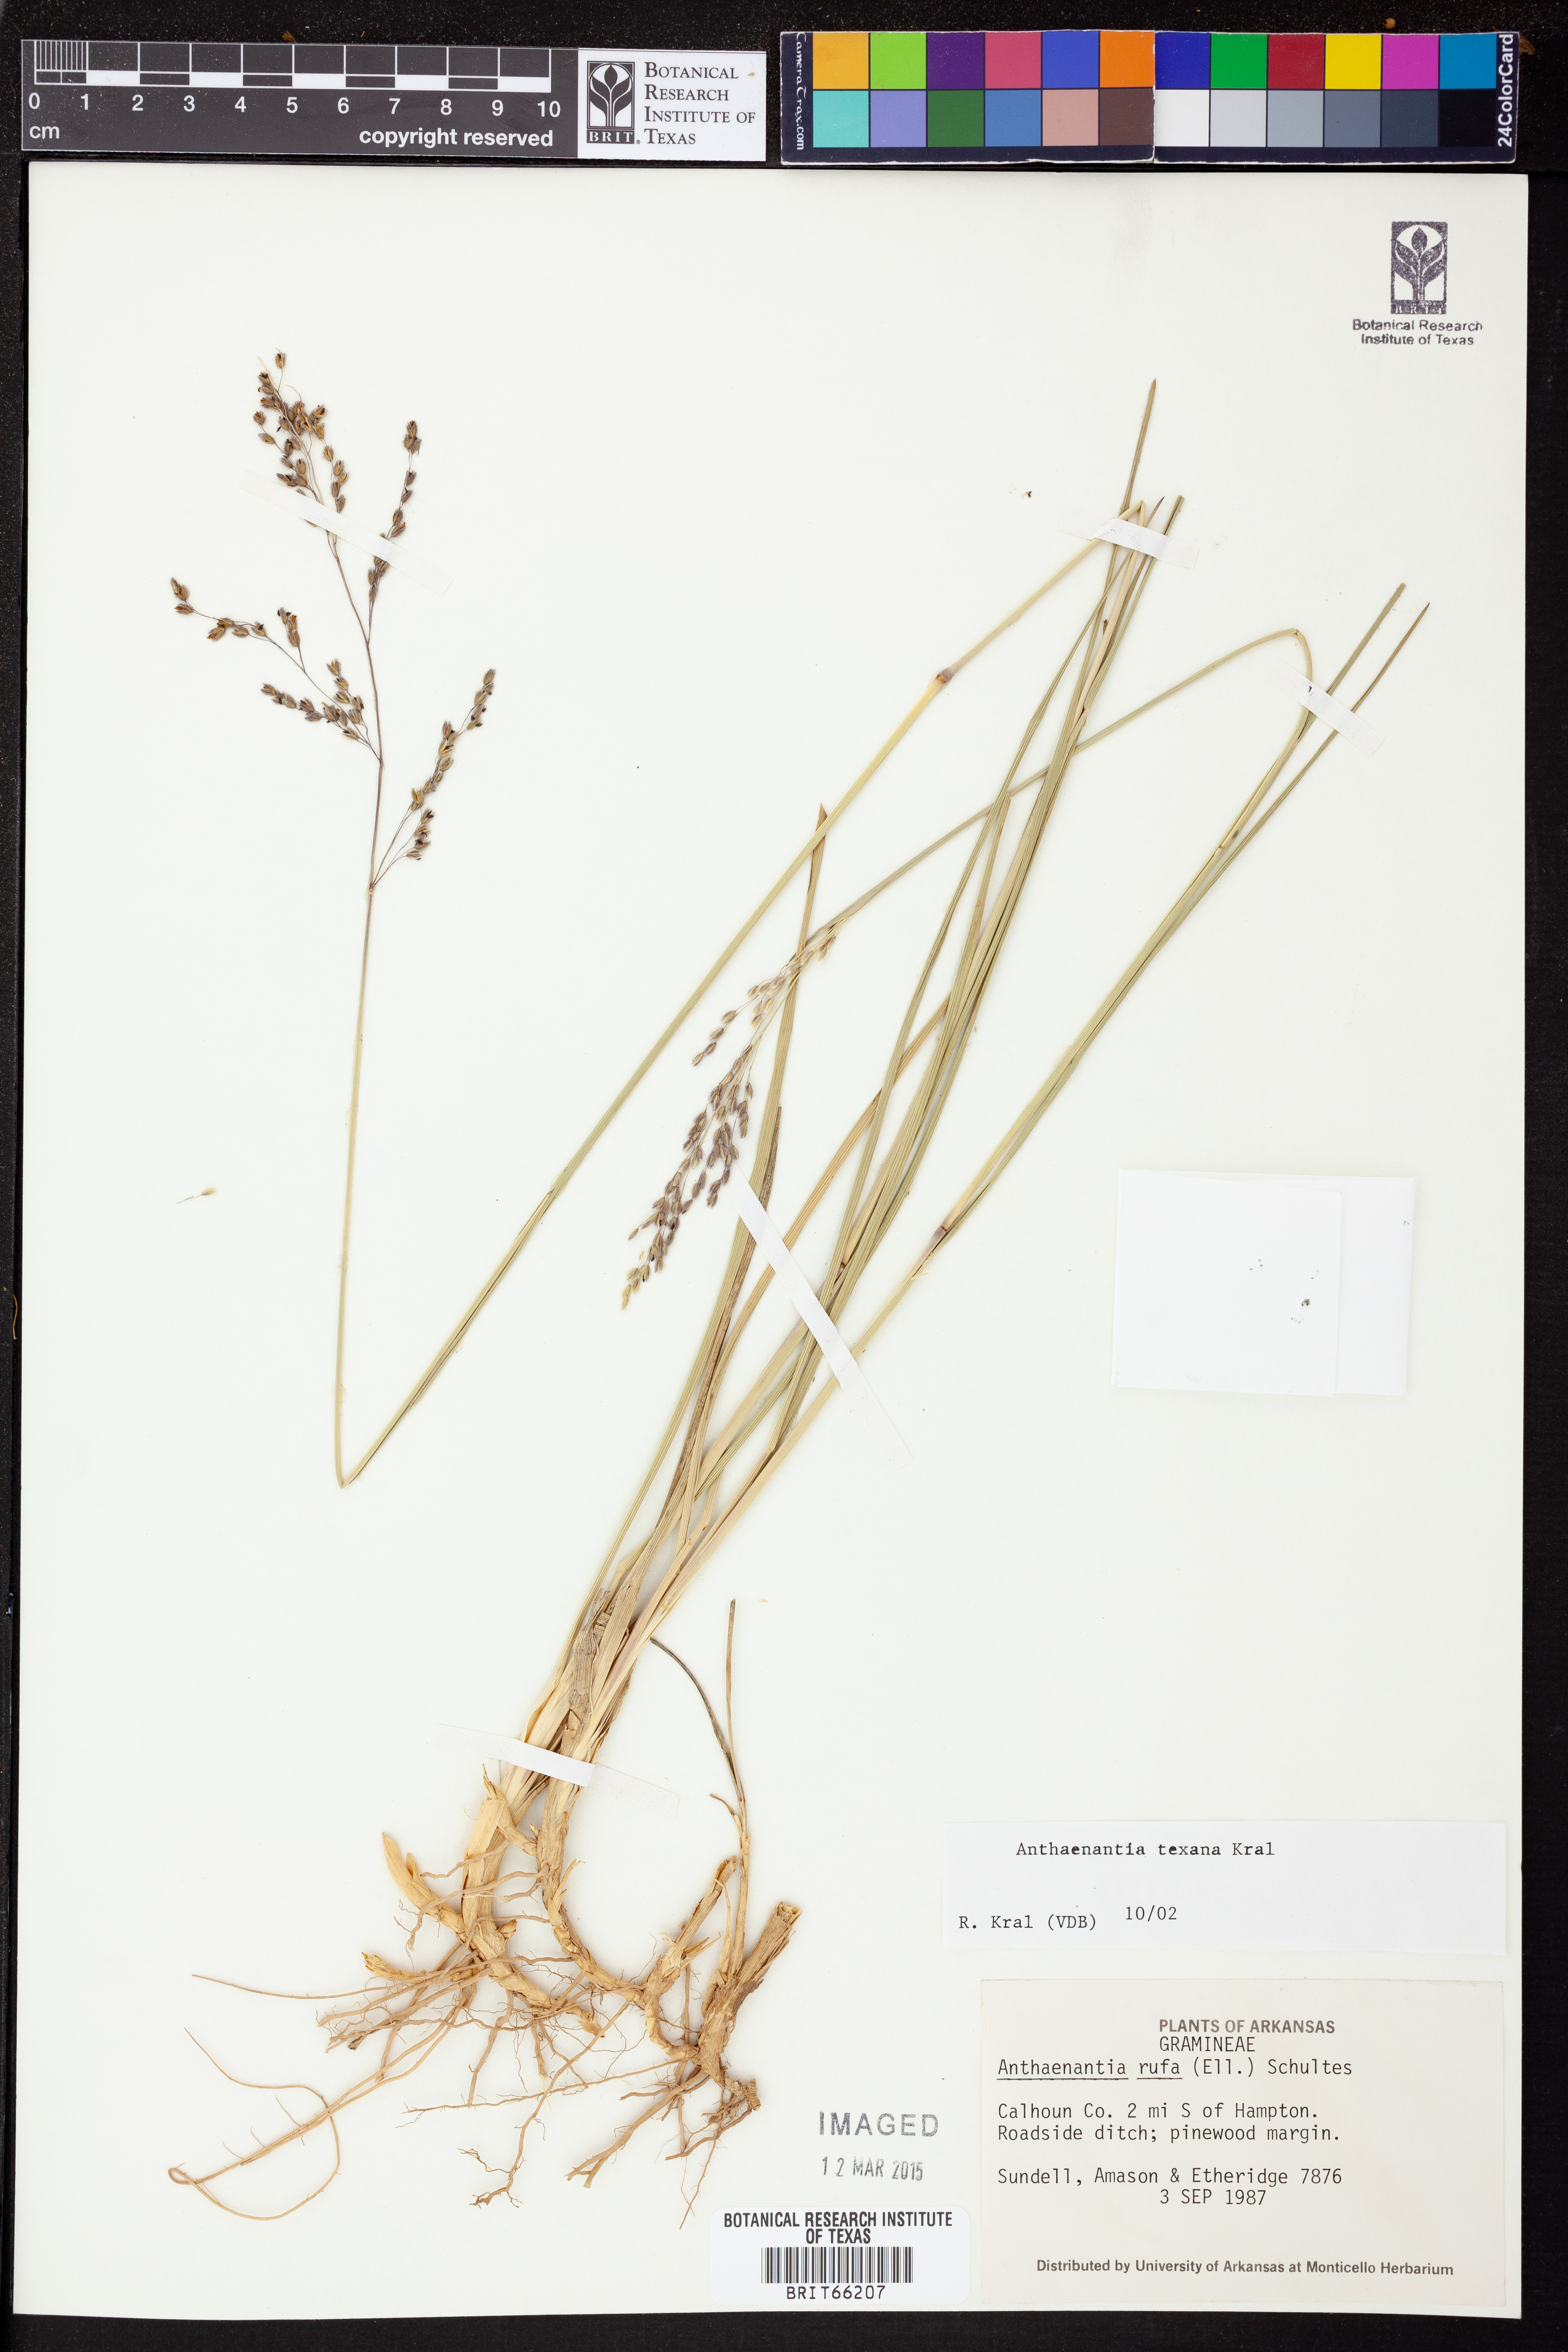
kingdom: Plantae
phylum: Tracheophyta
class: Liliopsida
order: Poales
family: Poaceae
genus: Anthaenantia
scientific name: Anthaenantia texana
